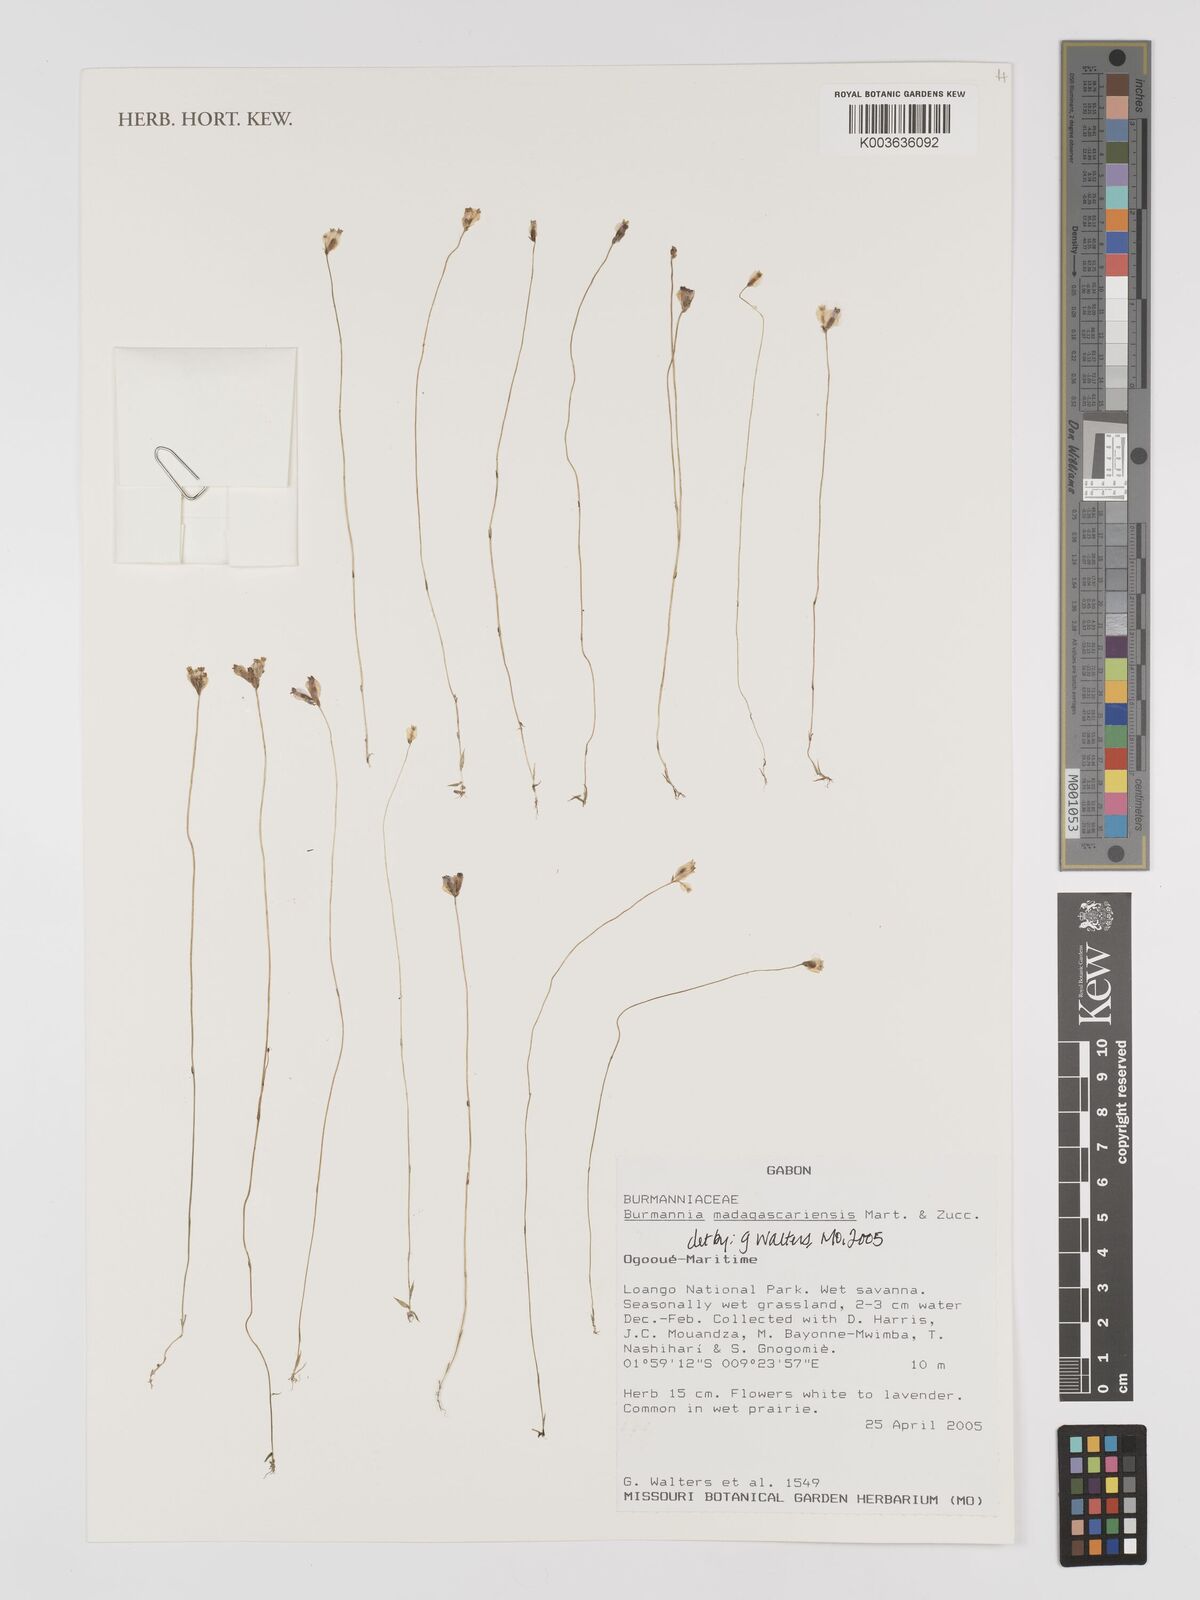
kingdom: Plantae
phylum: Tracheophyta
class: Liliopsida
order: Dioscoreales
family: Burmanniaceae
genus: Burmannia
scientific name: Burmannia madagascariensis
